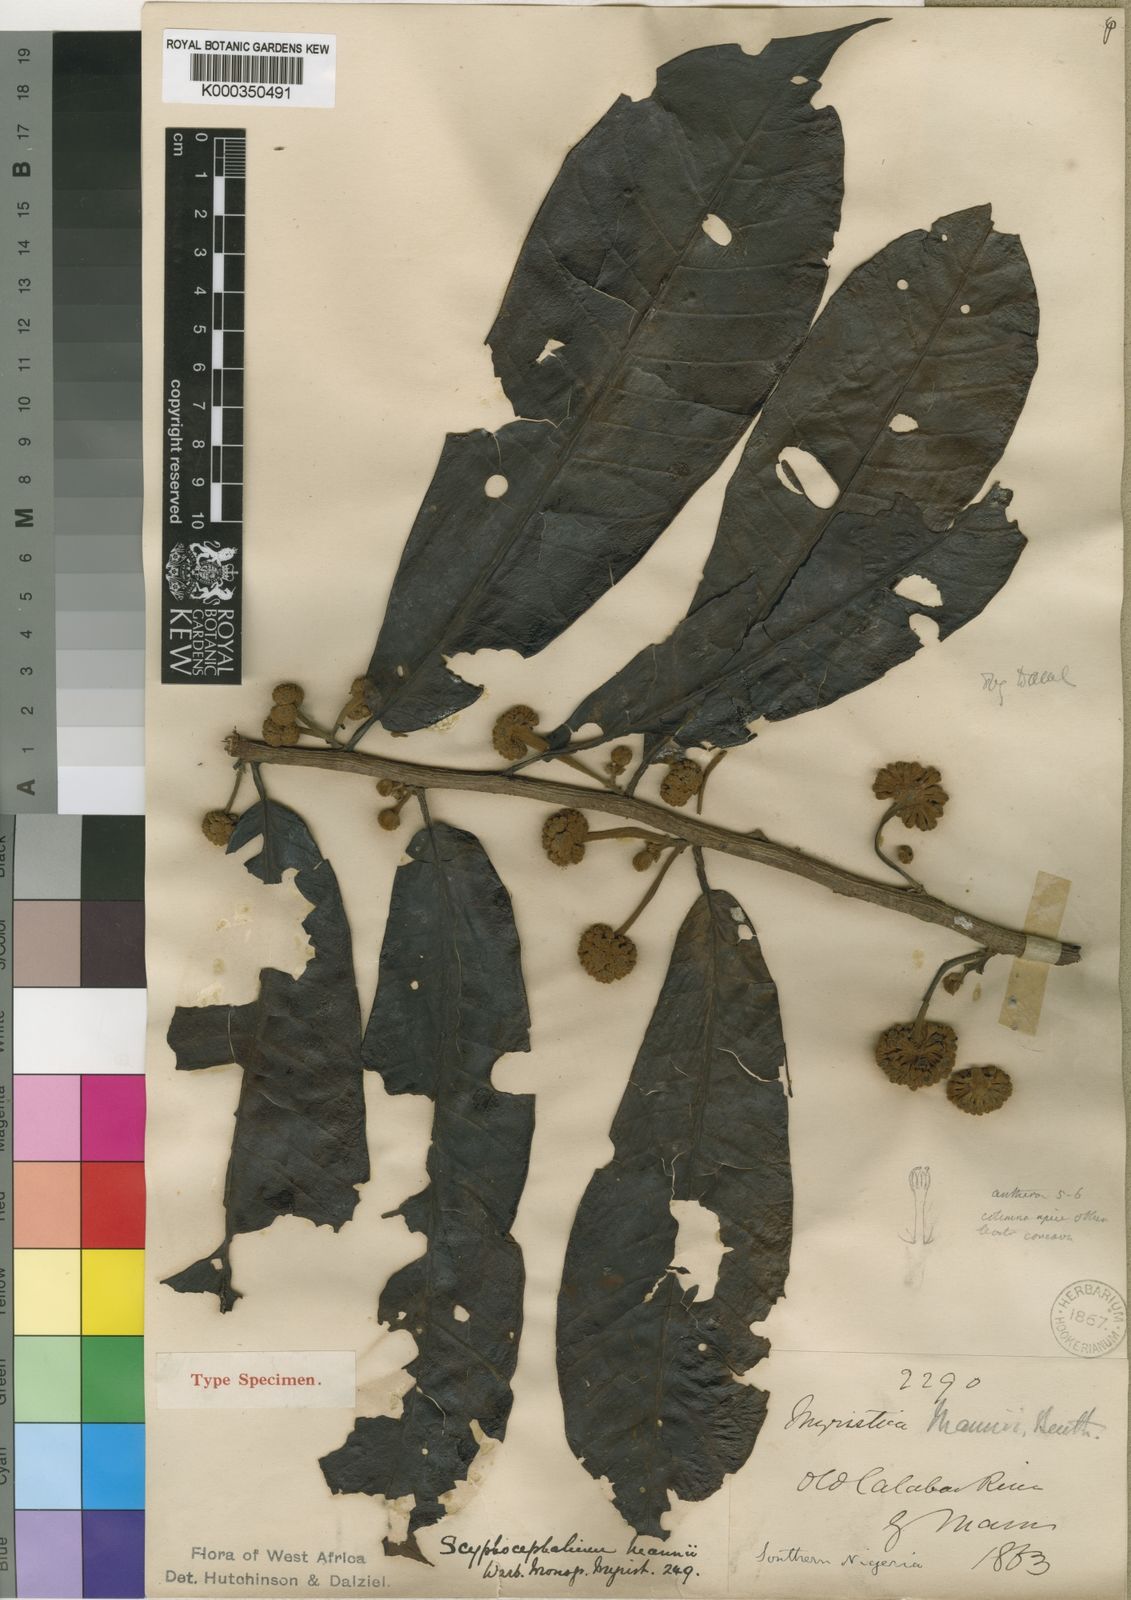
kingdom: Plantae
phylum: Tracheophyta
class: Magnoliopsida
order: Magnoliales
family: Myristicaceae
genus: Scyphocephalum
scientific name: Scyphocephalum mannii
